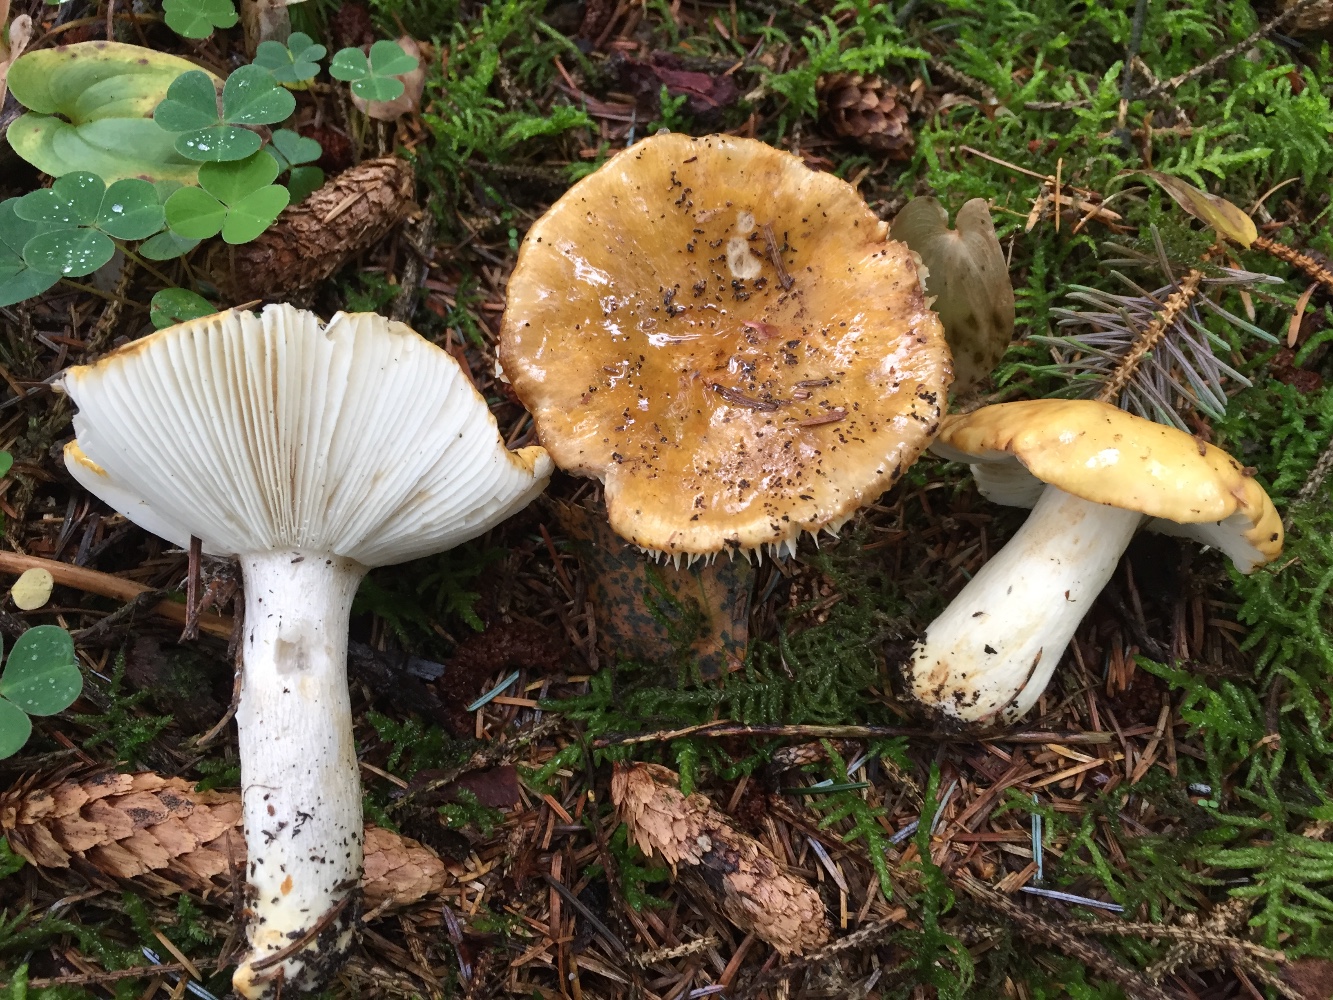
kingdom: Fungi
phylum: Basidiomycota
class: Agaricomycetes
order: Russulales
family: Russulaceae
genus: Russula
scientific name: Russula ochroleuca
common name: okkergul skørhat
